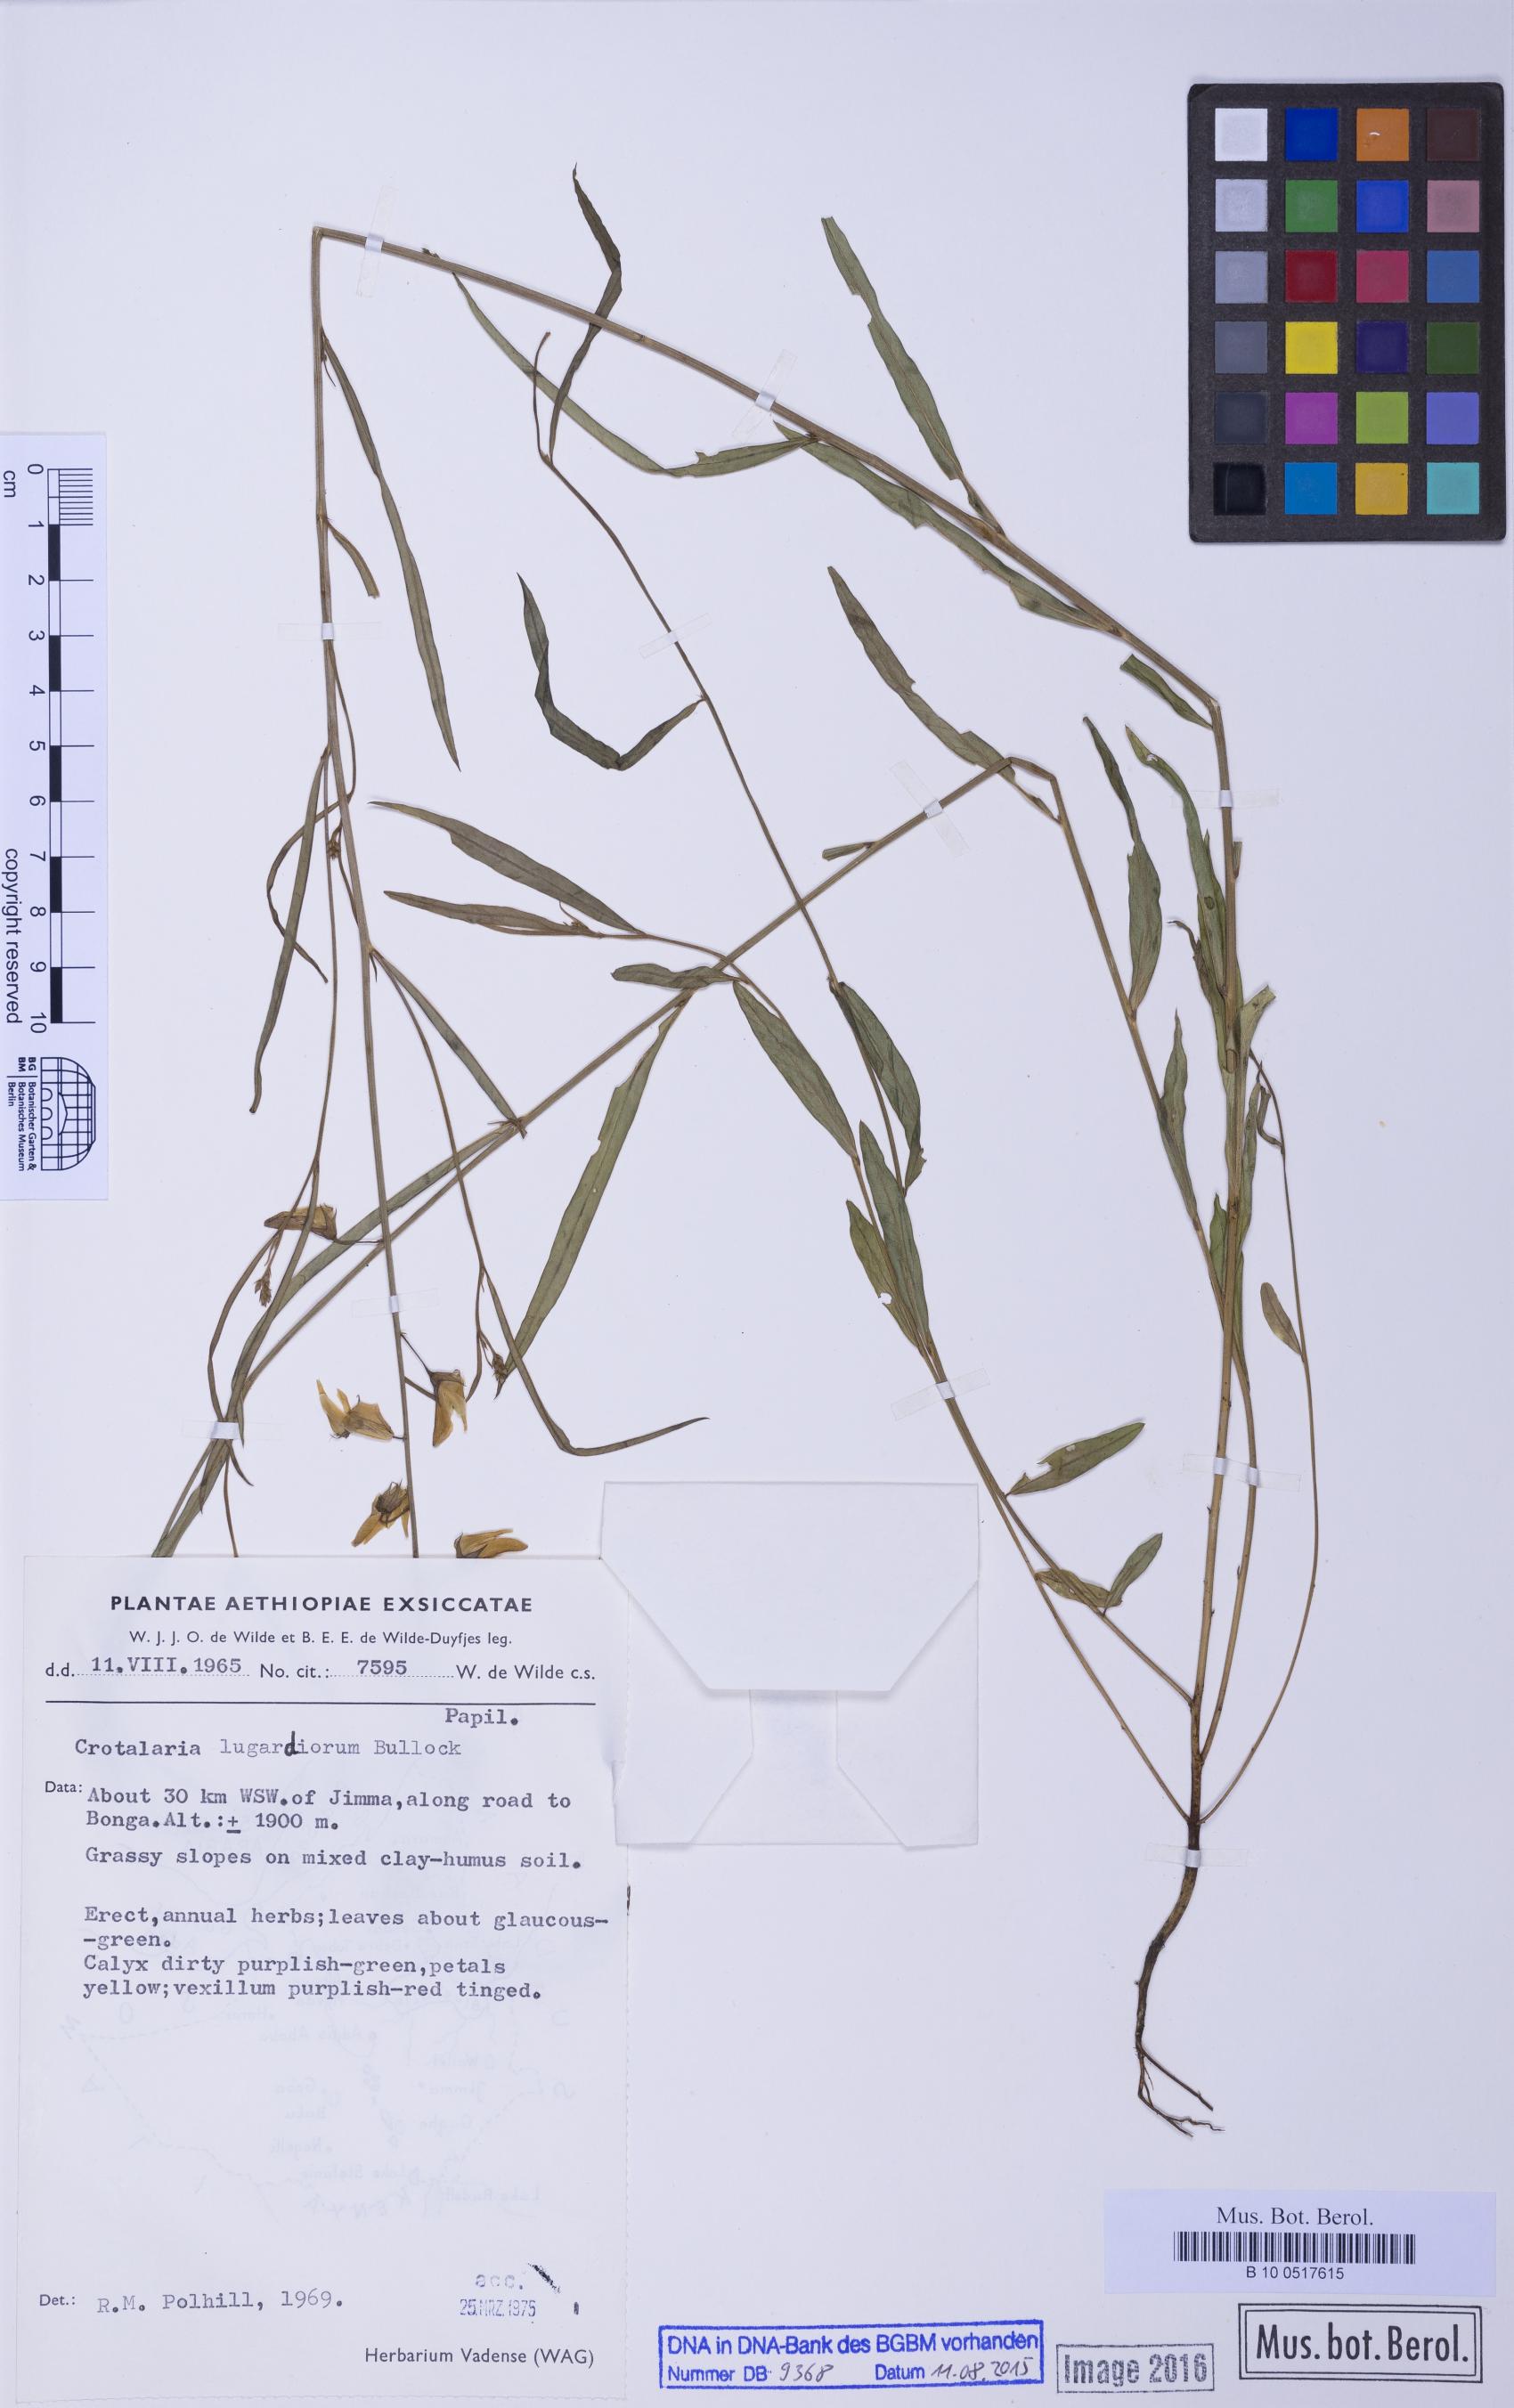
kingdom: Plantae
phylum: Tracheophyta
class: Magnoliopsida
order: Fabales
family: Fabaceae
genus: Crotalaria
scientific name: Crotalaria karagwensis
